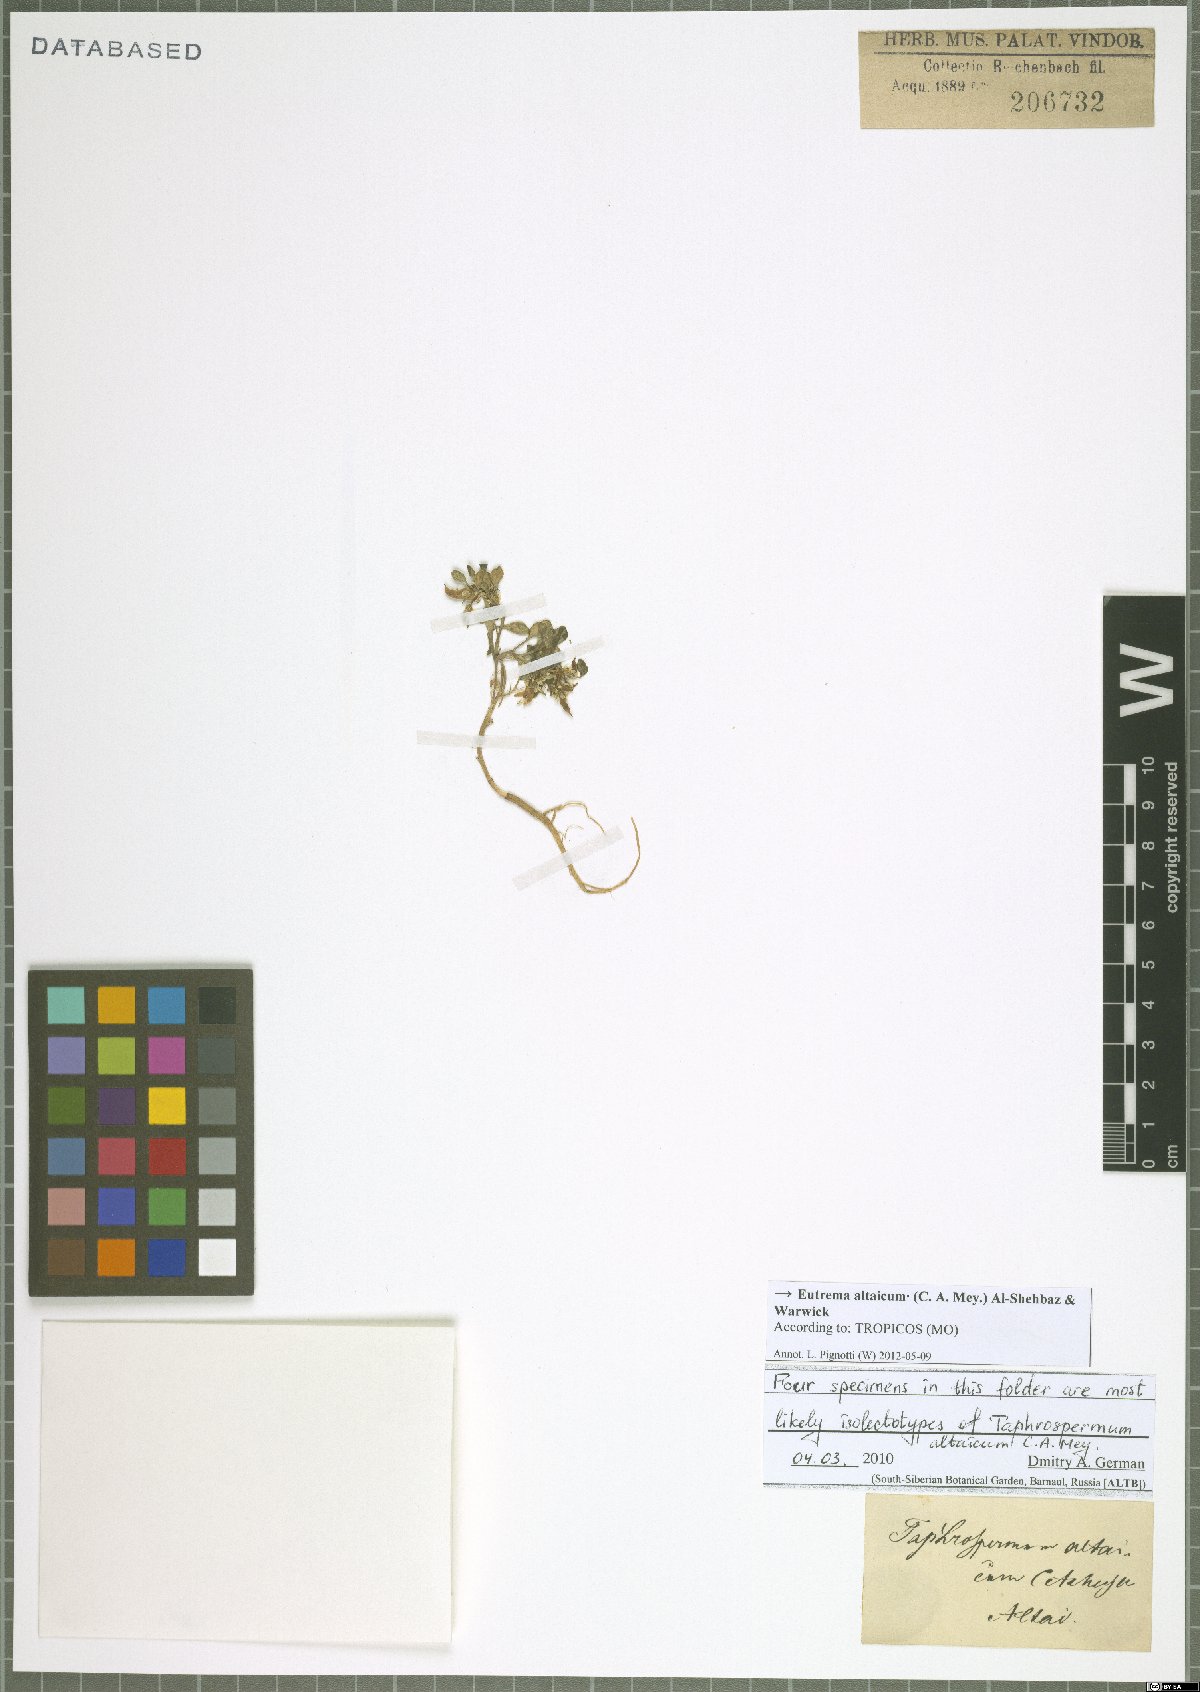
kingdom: Plantae
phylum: Tracheophyta
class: Magnoliopsida
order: Brassicales
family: Brassicaceae
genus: Eutrema
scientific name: Eutrema altaicum
